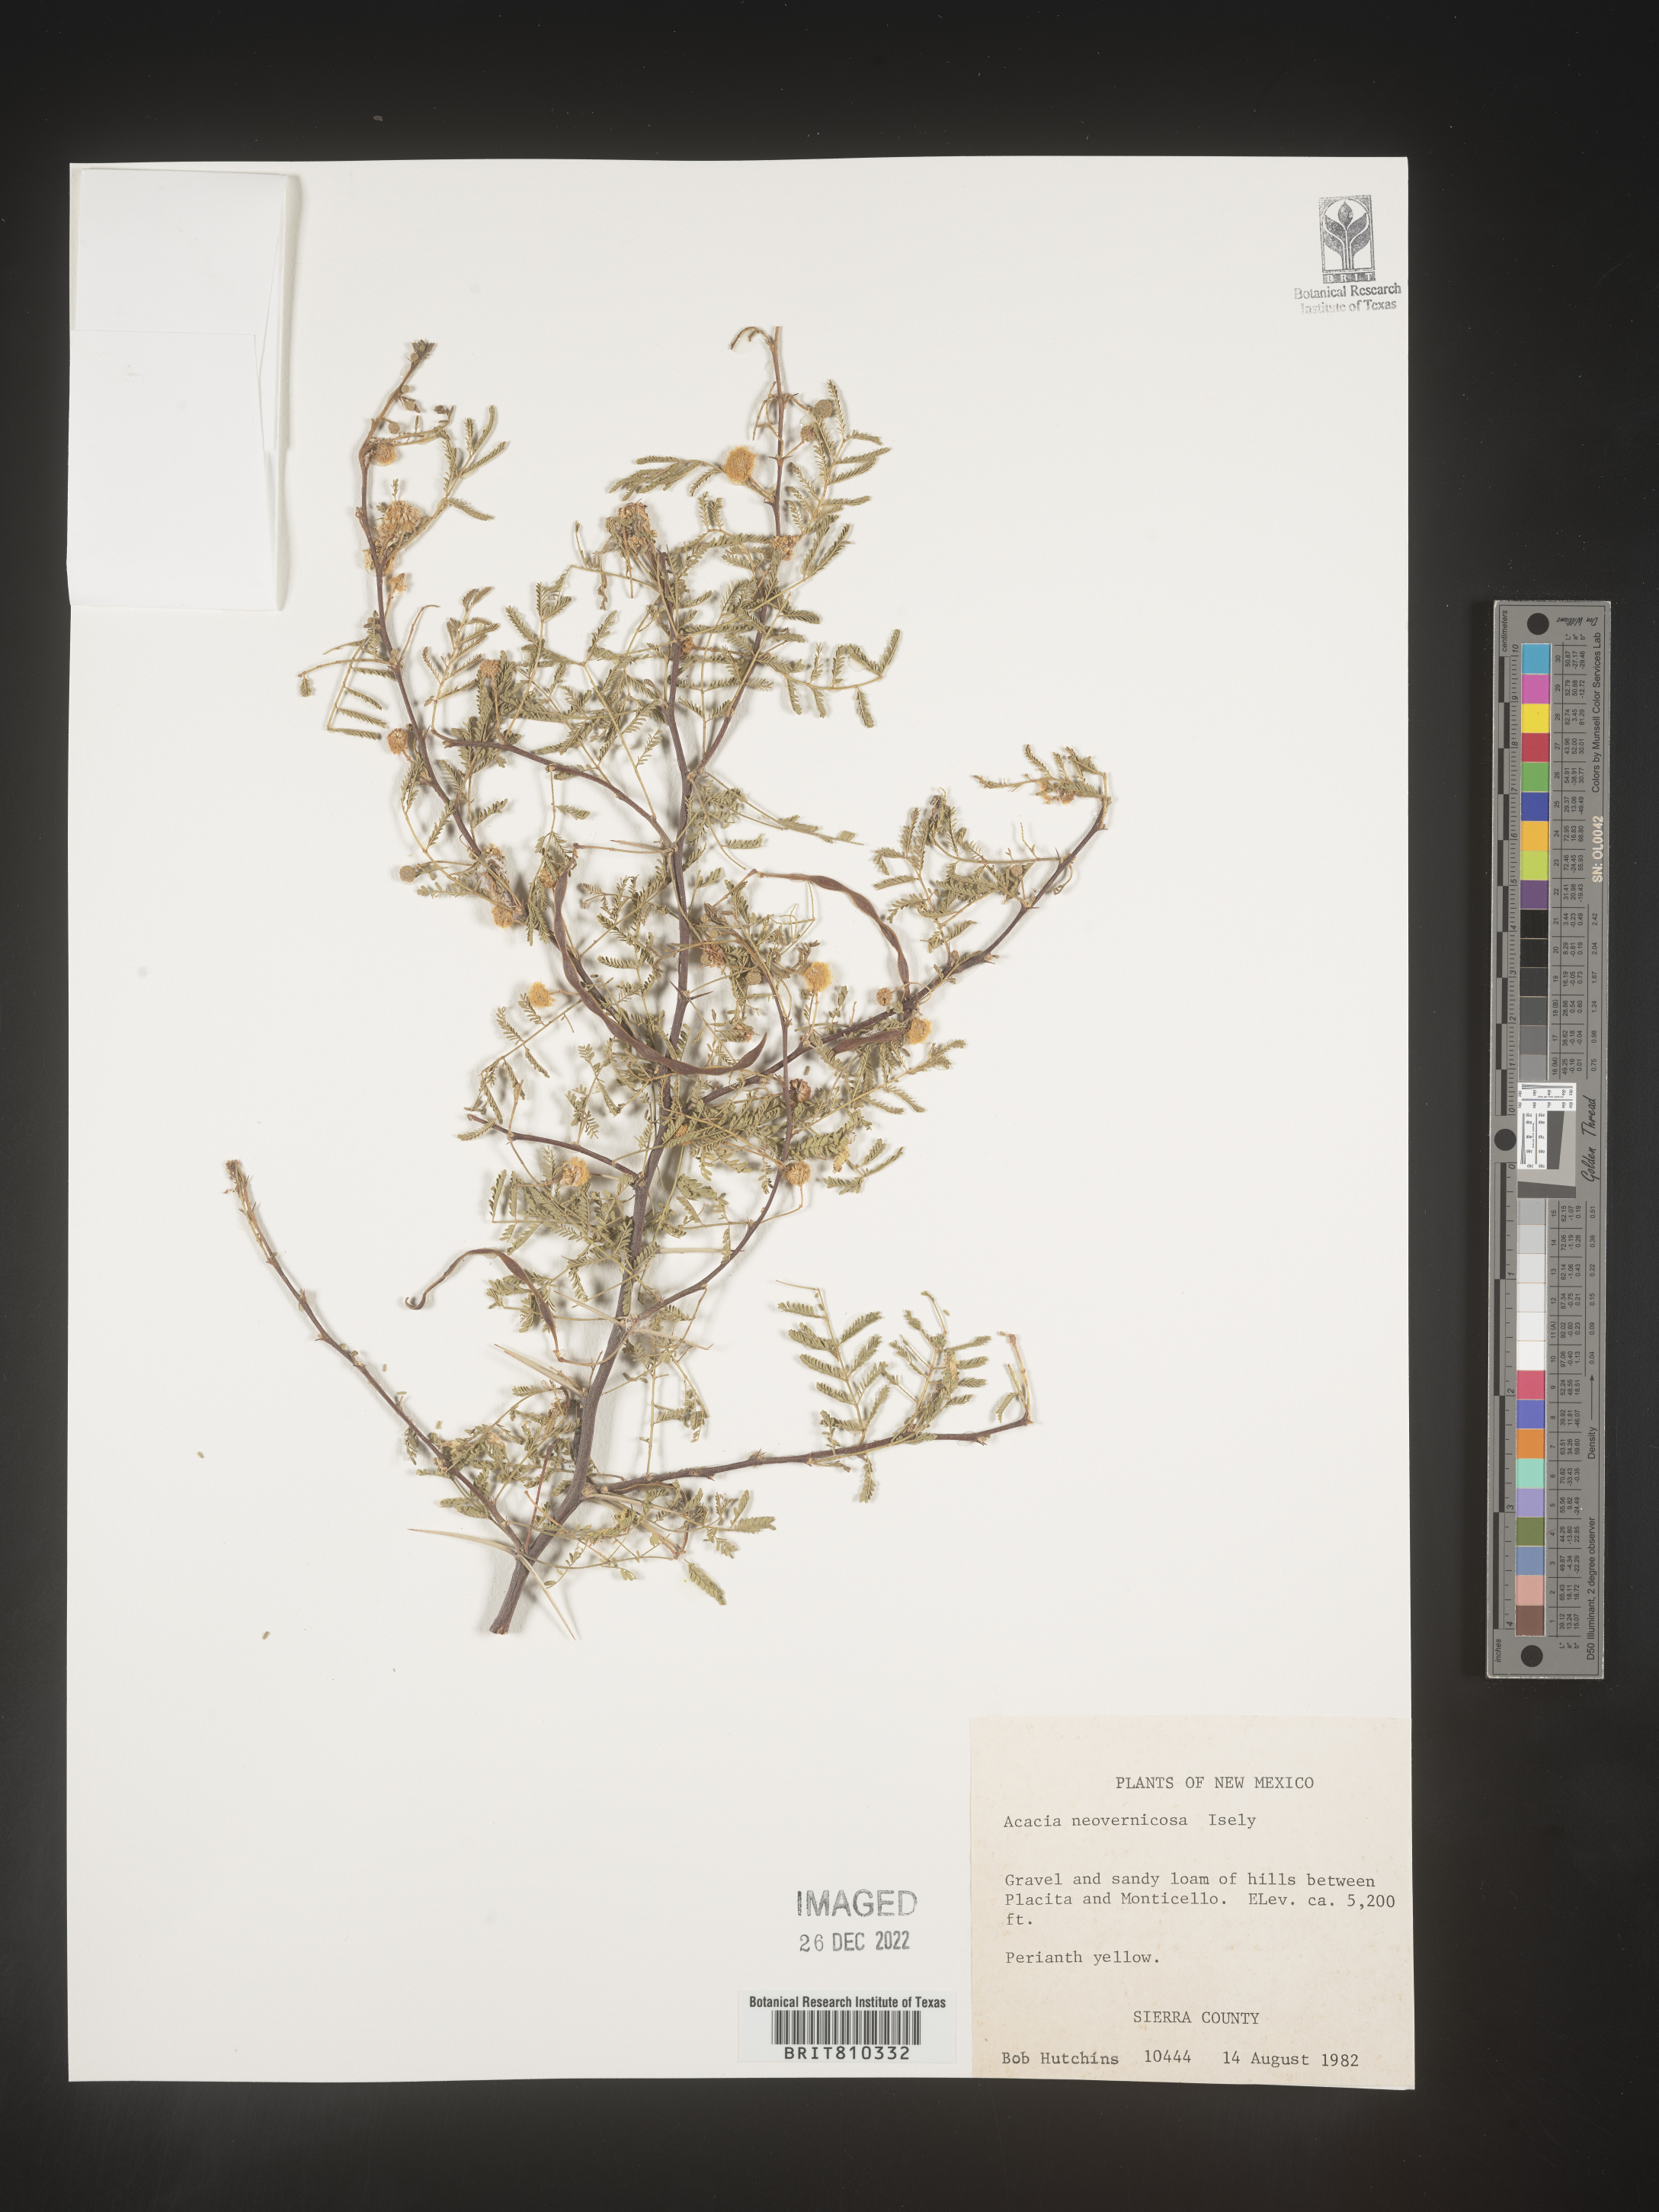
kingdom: Plantae
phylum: Tracheophyta
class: Magnoliopsida
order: Fabales
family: Fabaceae
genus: Acacia
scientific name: Acacia
